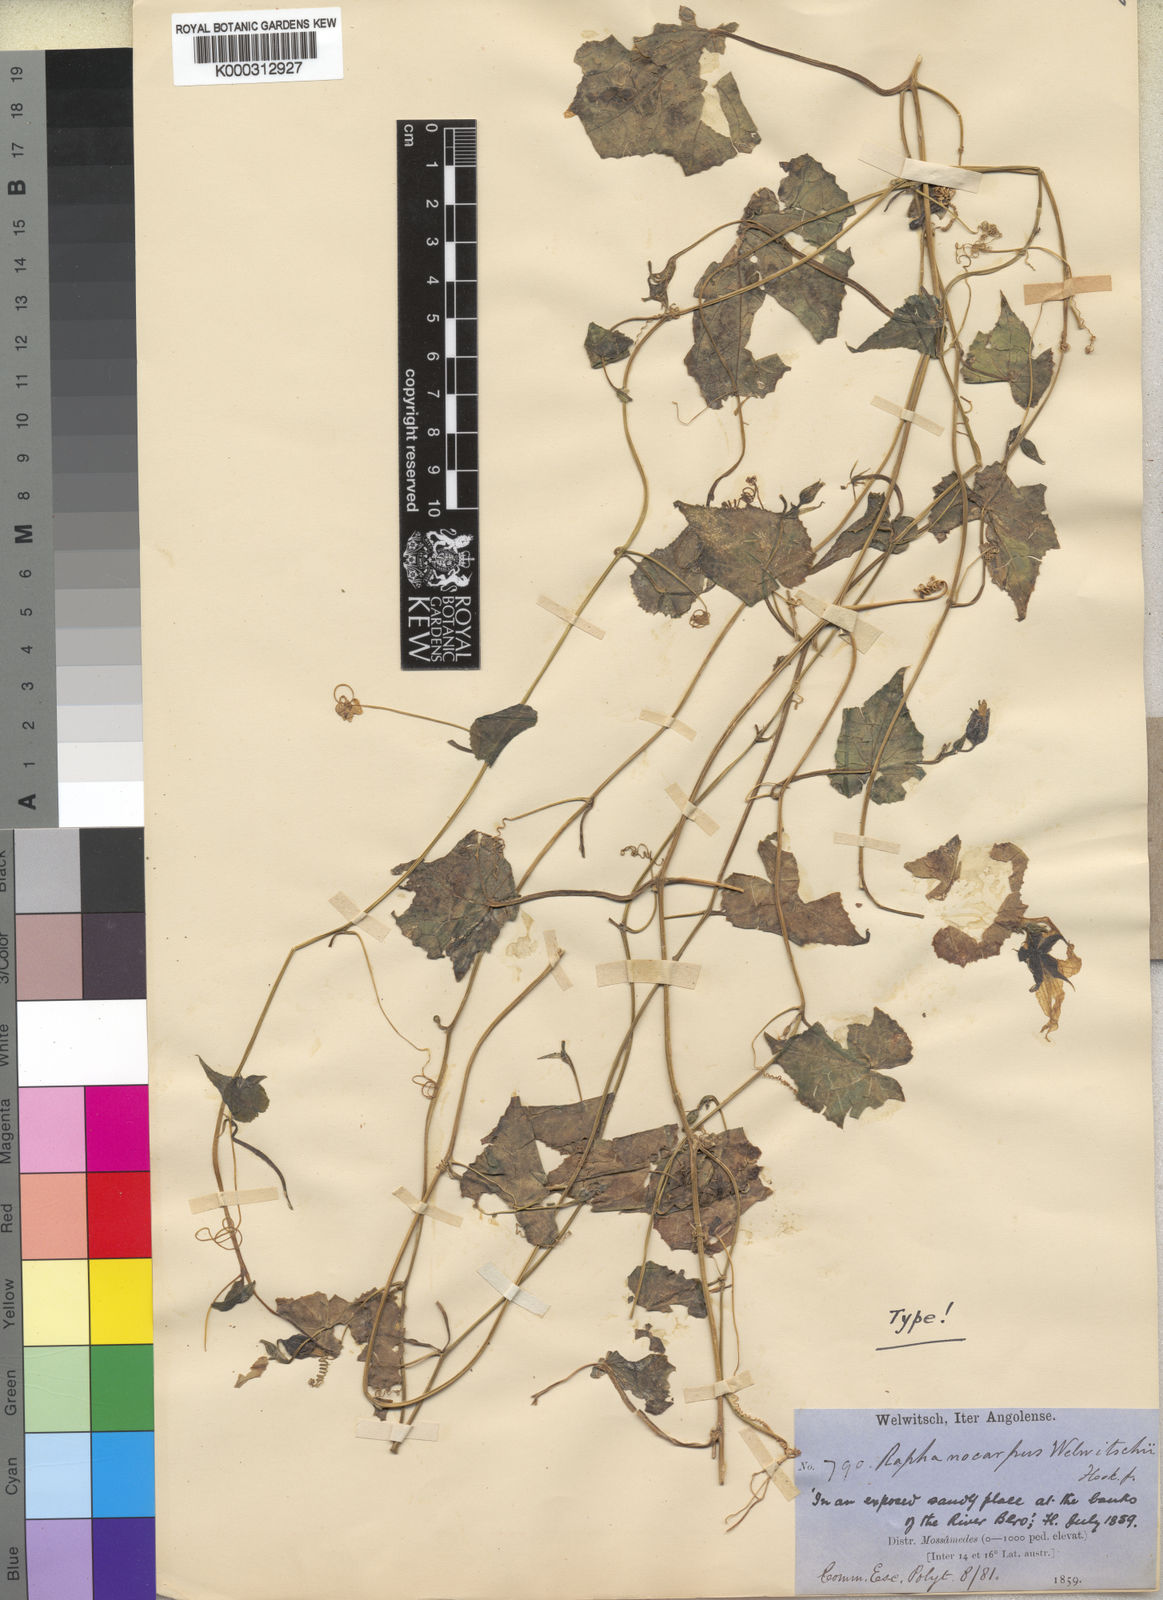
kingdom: Plantae
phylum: Tracheophyta
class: Magnoliopsida
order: Cucurbitales
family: Cucurbitaceae
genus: Momordica
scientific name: Momordica humilis
